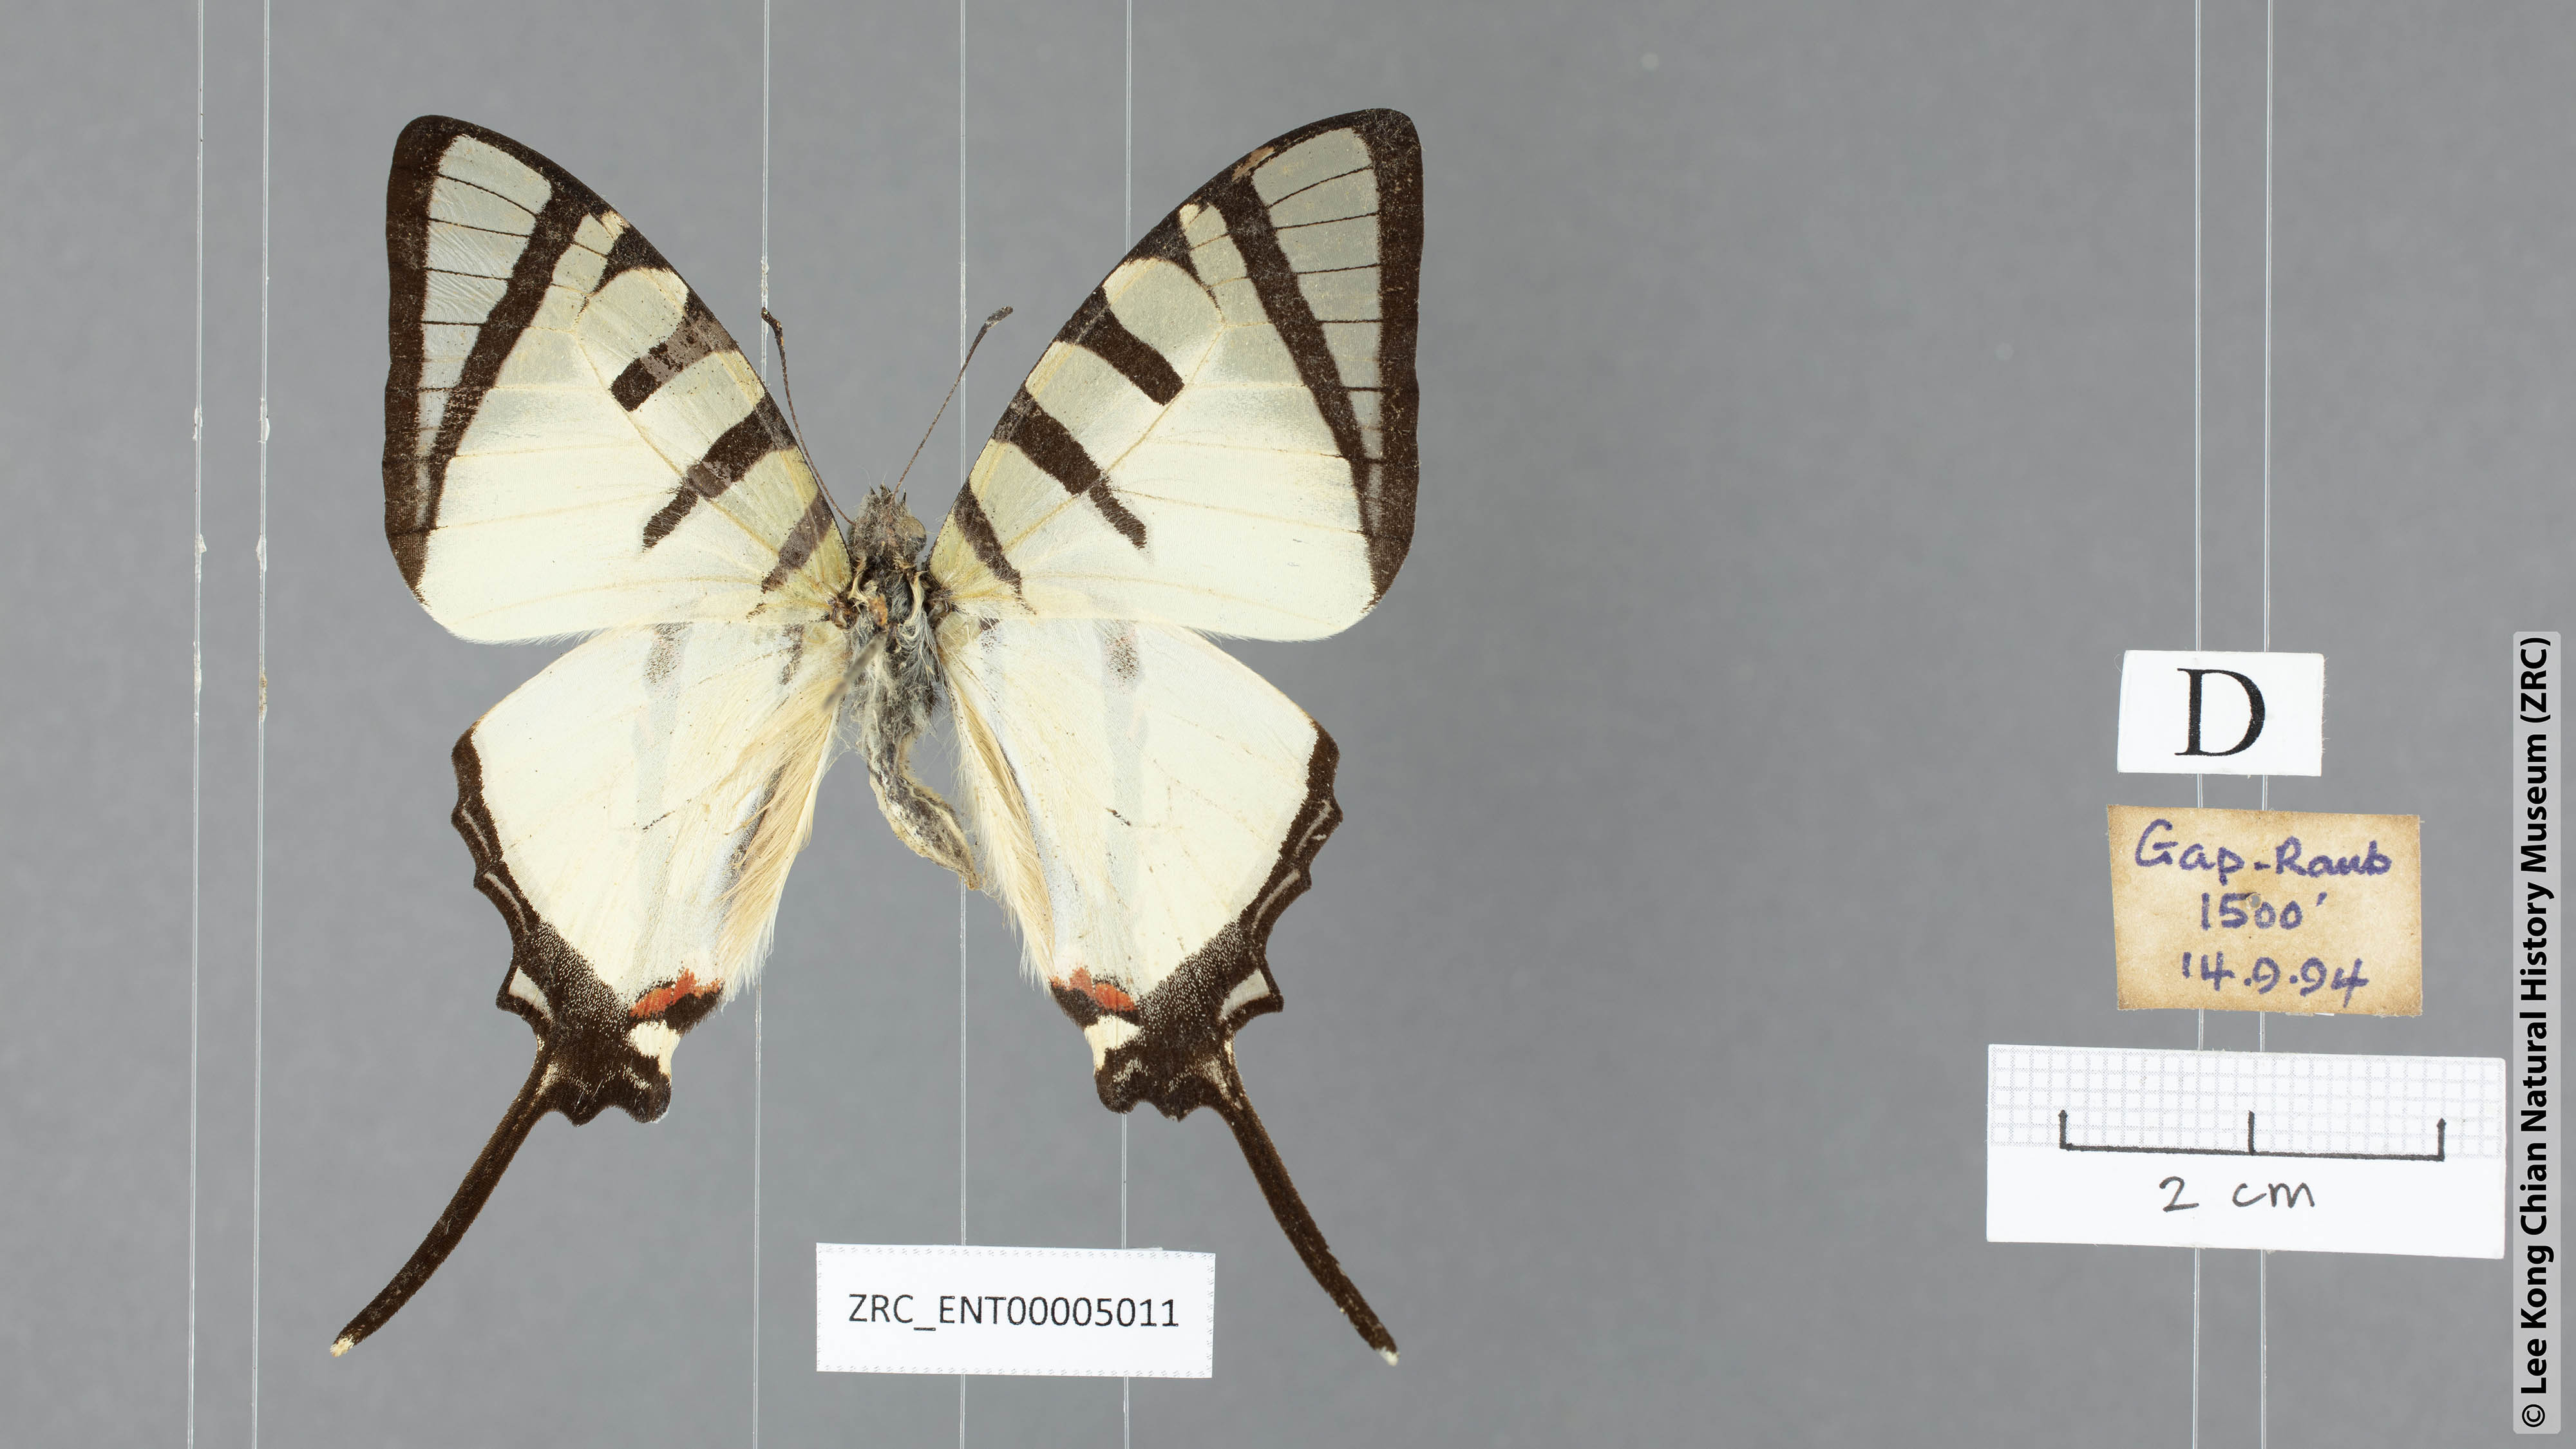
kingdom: Animalia
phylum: Arthropoda
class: Insecta
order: Lepidoptera
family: Papilionidae
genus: Graphium
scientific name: Graphium agetes
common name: Fourbar swordtail
